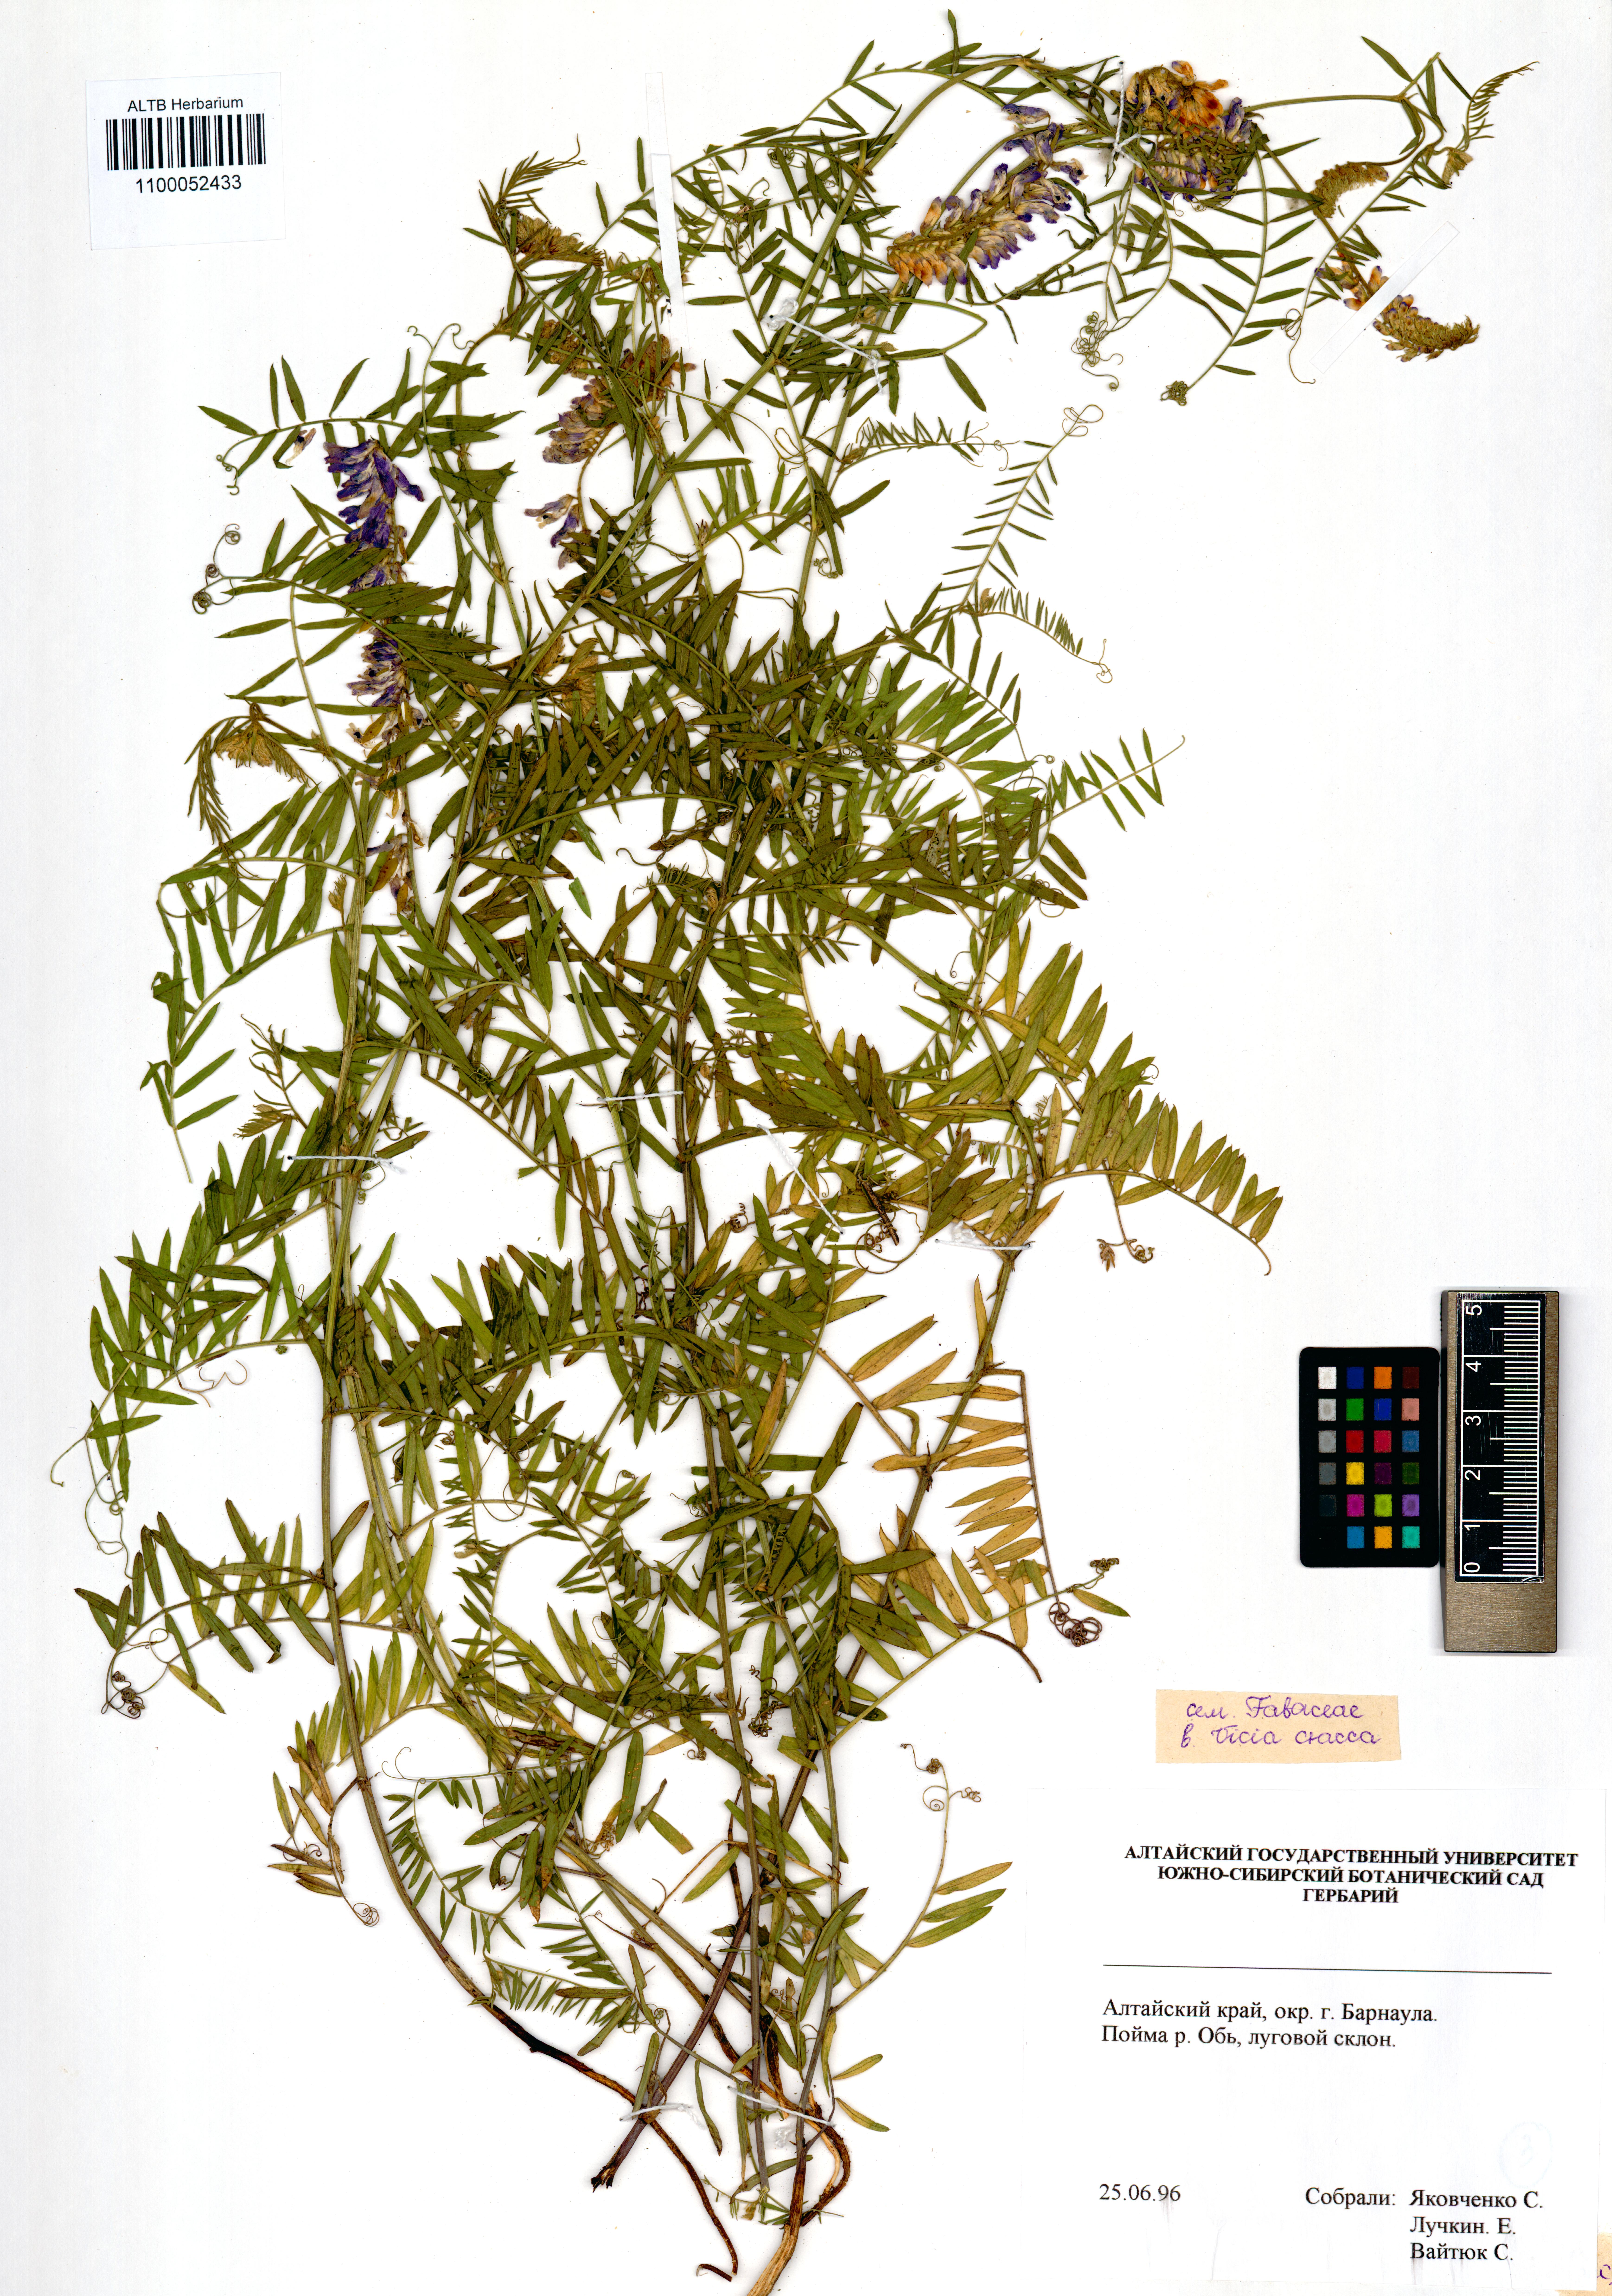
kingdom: Plantae
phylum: Tracheophyta
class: Magnoliopsida
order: Fabales
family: Fabaceae
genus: Vicia
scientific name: Vicia cracca
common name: Bird vetch
